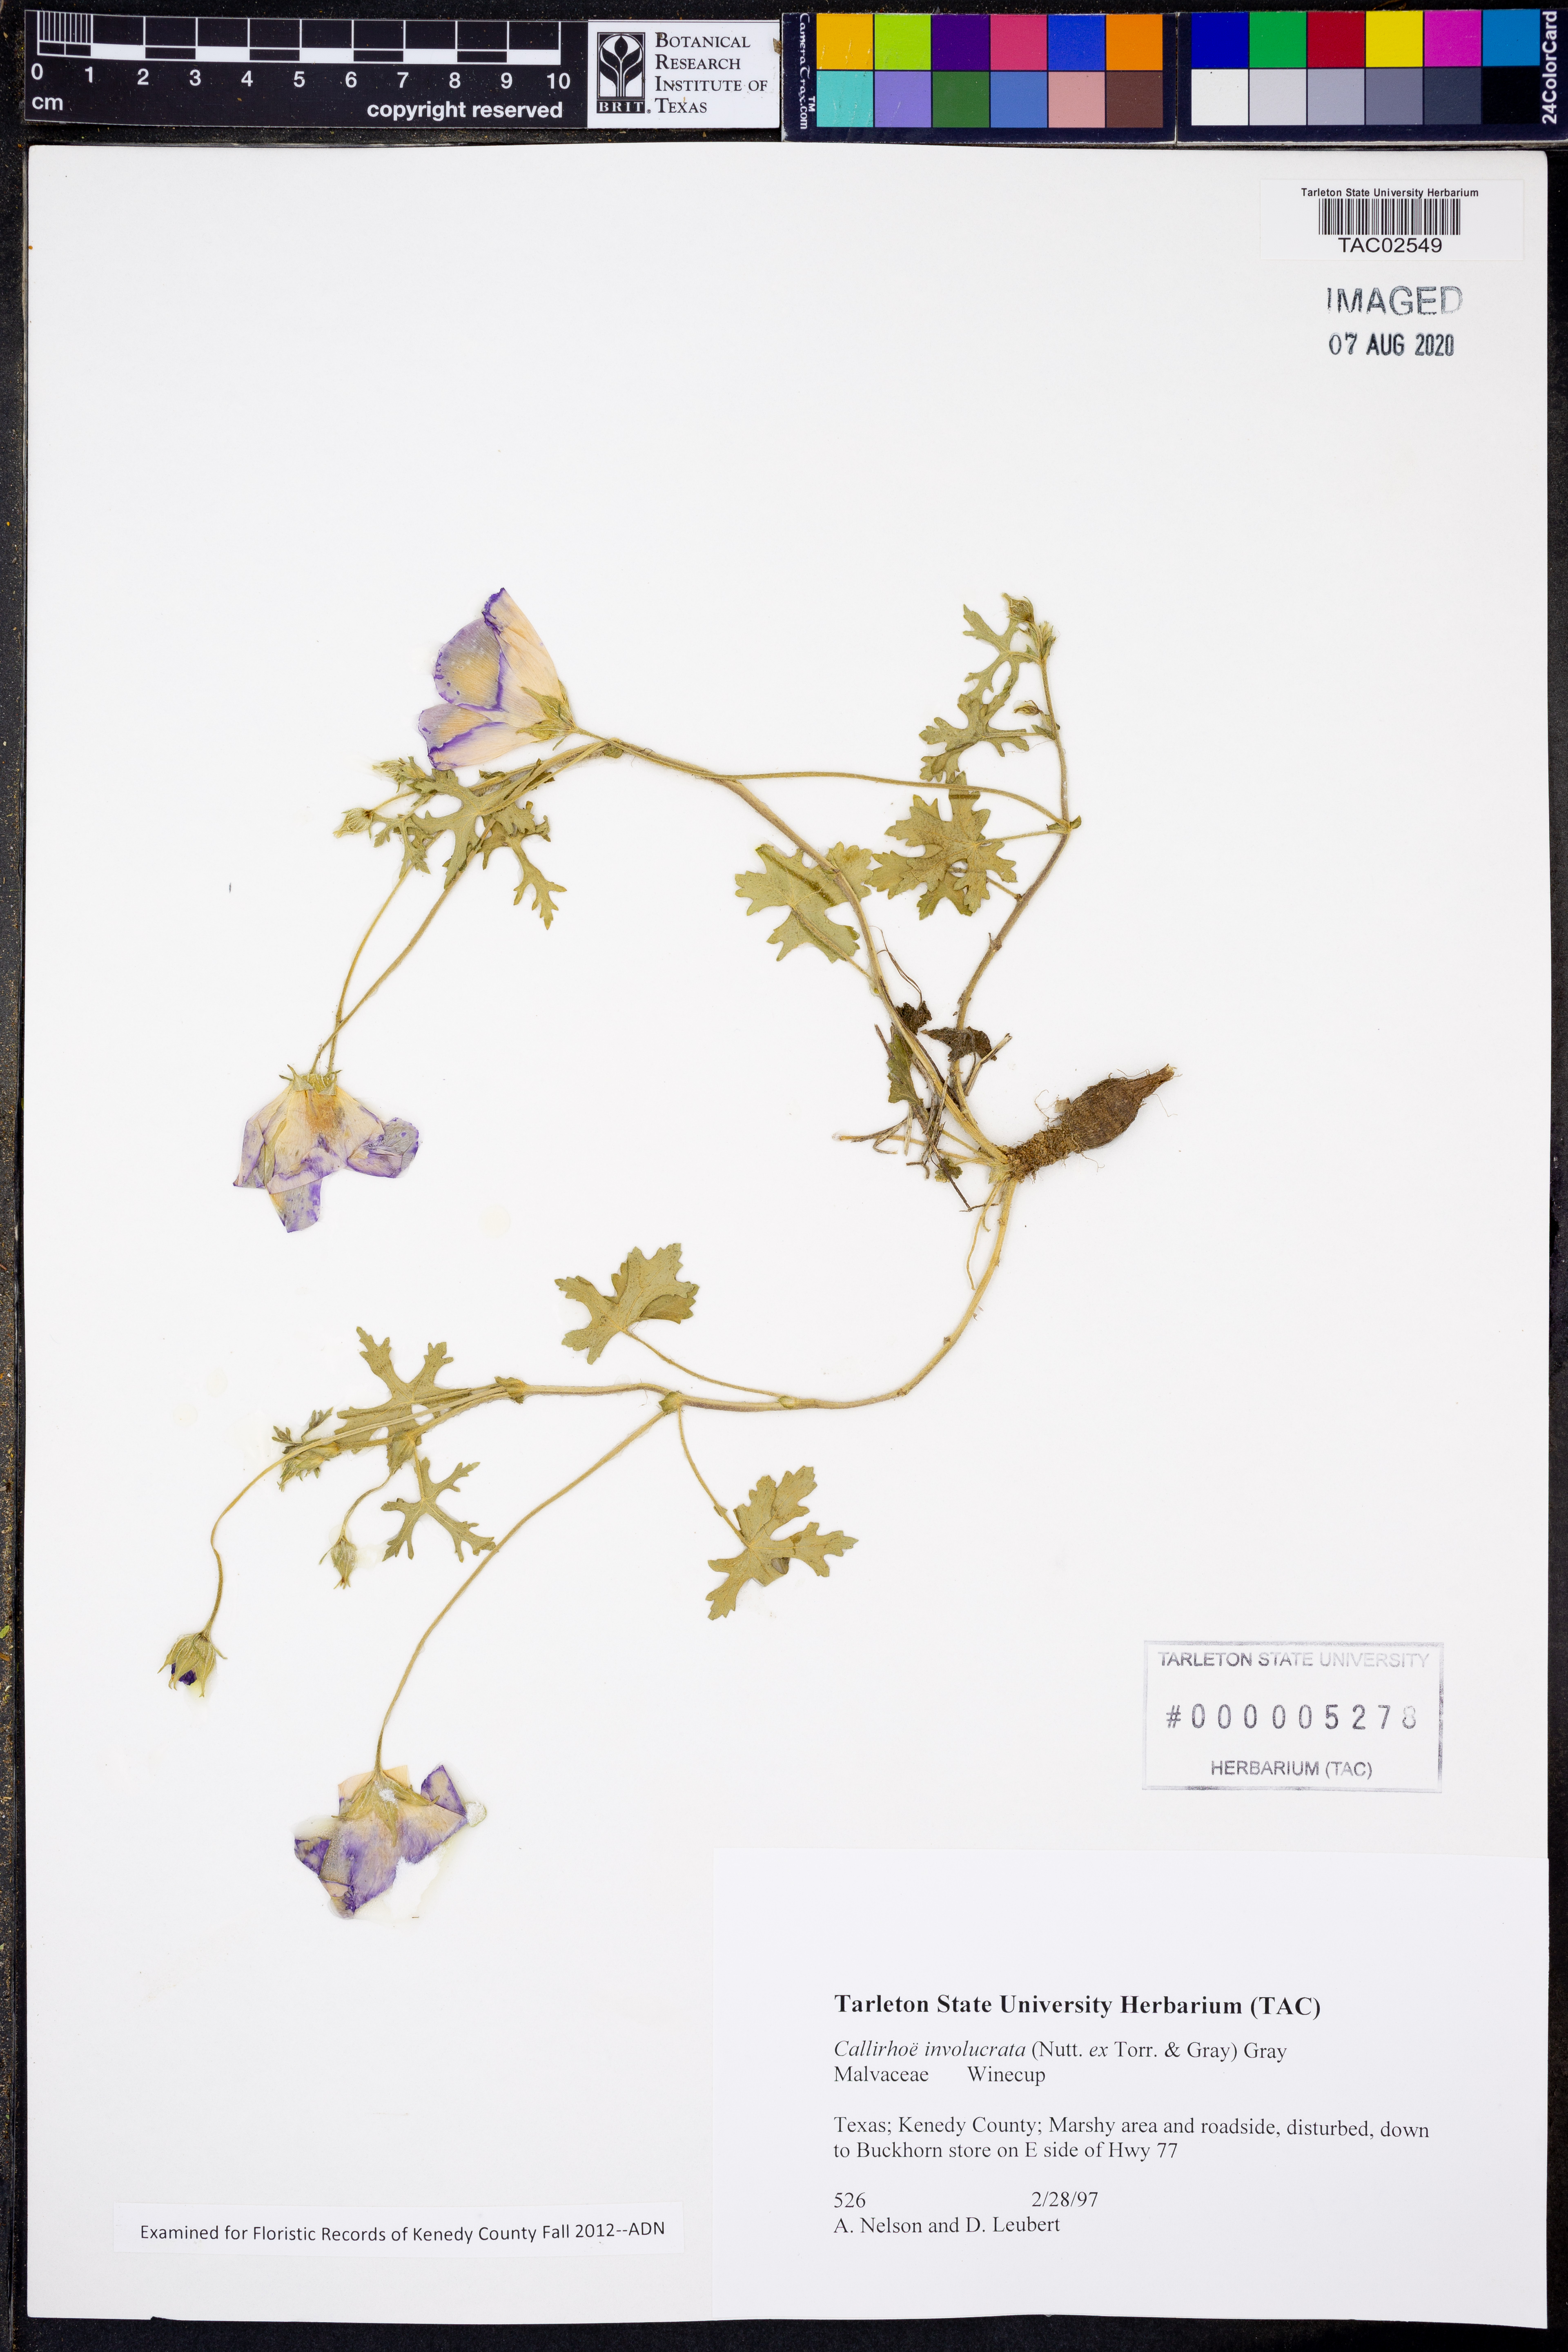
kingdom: Plantae
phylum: Tracheophyta
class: Magnoliopsida
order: Malvales
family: Malvaceae
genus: Callirhoe
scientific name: Callirhoe involucrata
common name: Purple poppy-mallow
